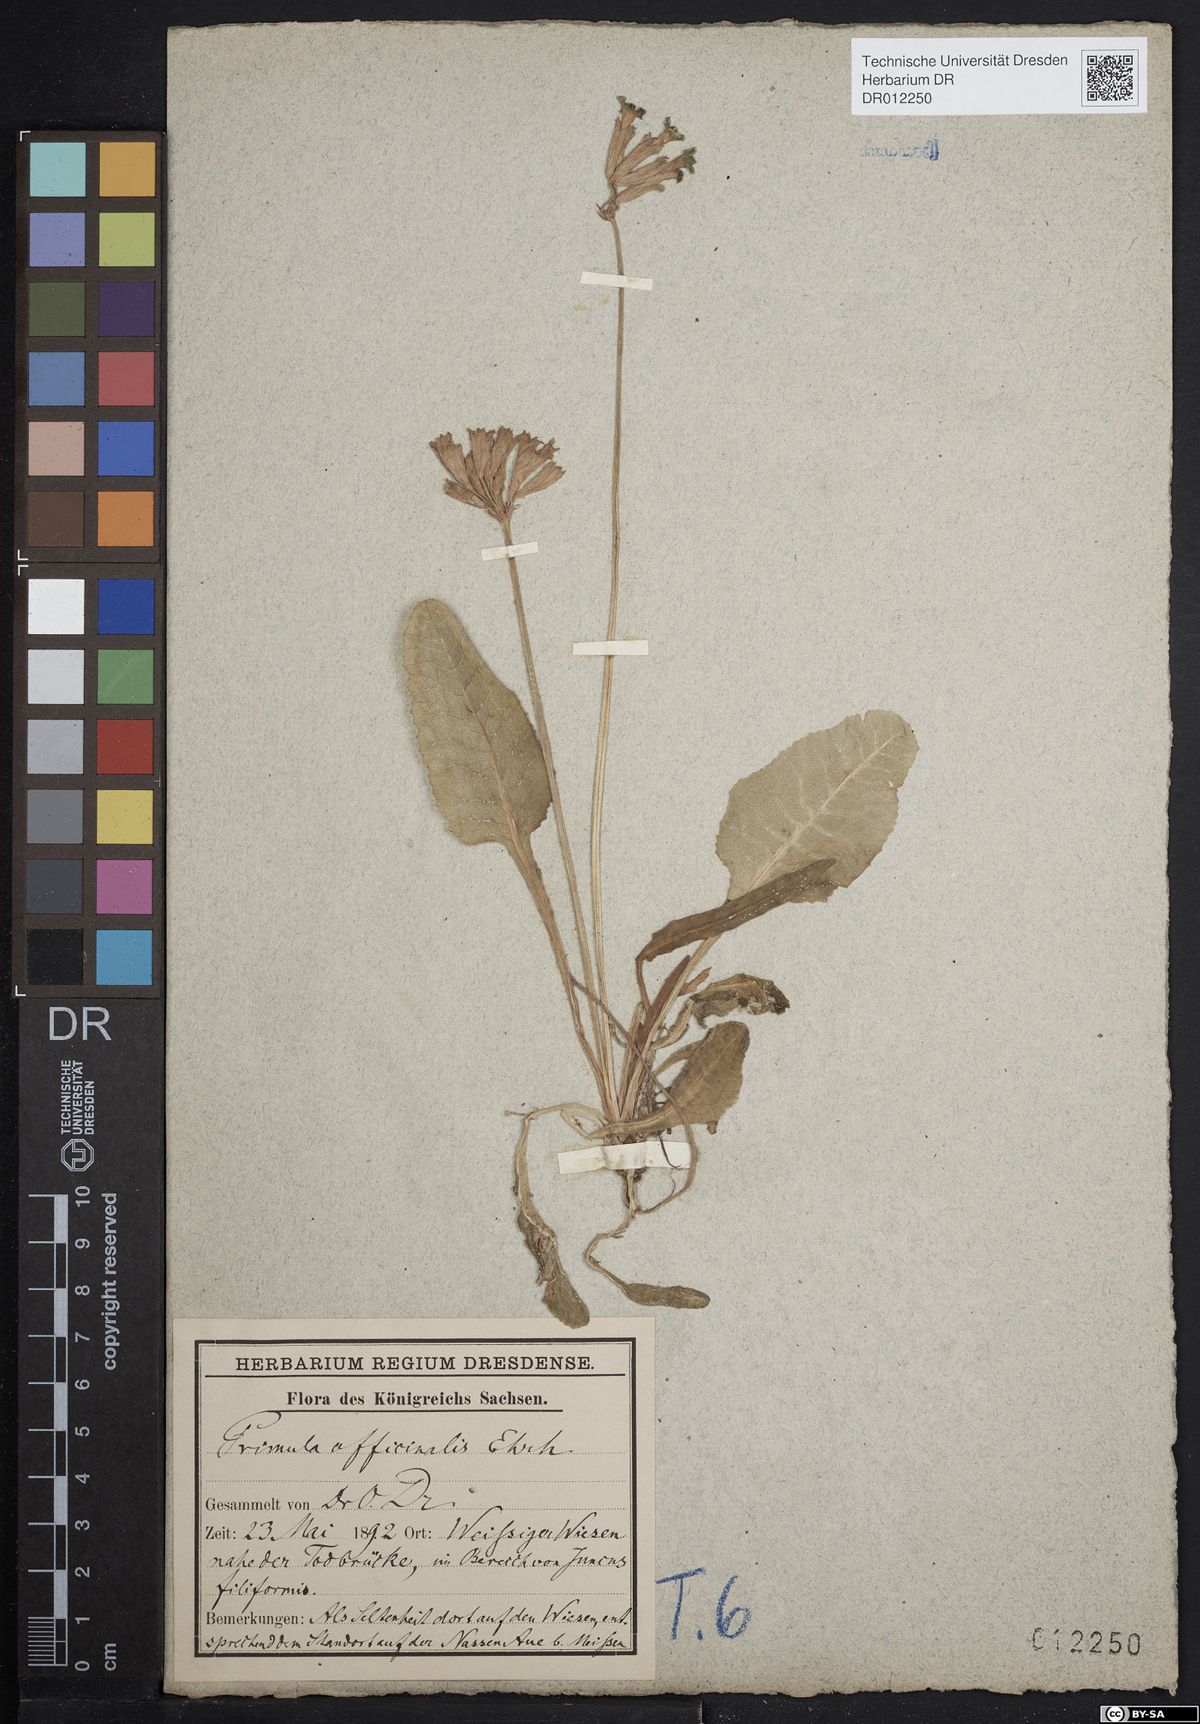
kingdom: Plantae
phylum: Tracheophyta
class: Magnoliopsida
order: Ericales
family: Primulaceae
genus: Primula
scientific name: Primula veris
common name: Cowslip
